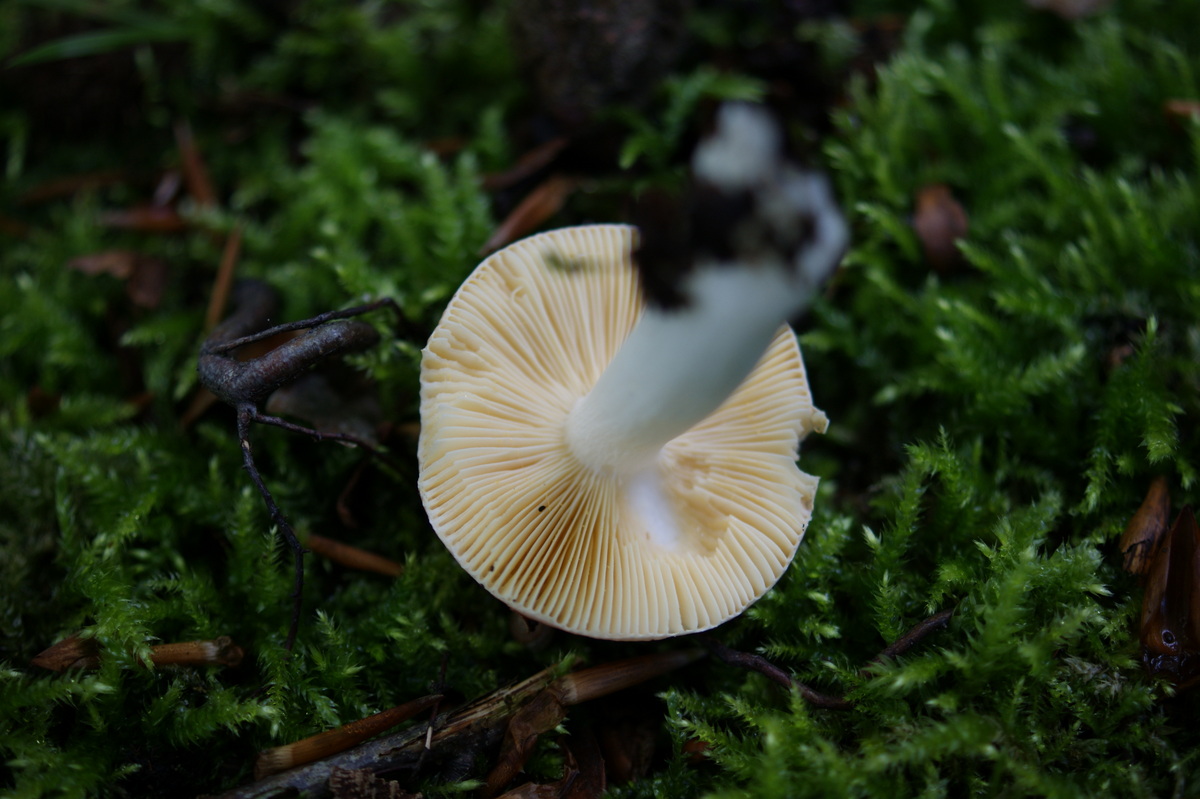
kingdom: Fungi
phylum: Basidiomycota
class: Agaricomycetes
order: Russulales
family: Russulaceae
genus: Russula
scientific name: Russula risigallina
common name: abrikos-skørhat
